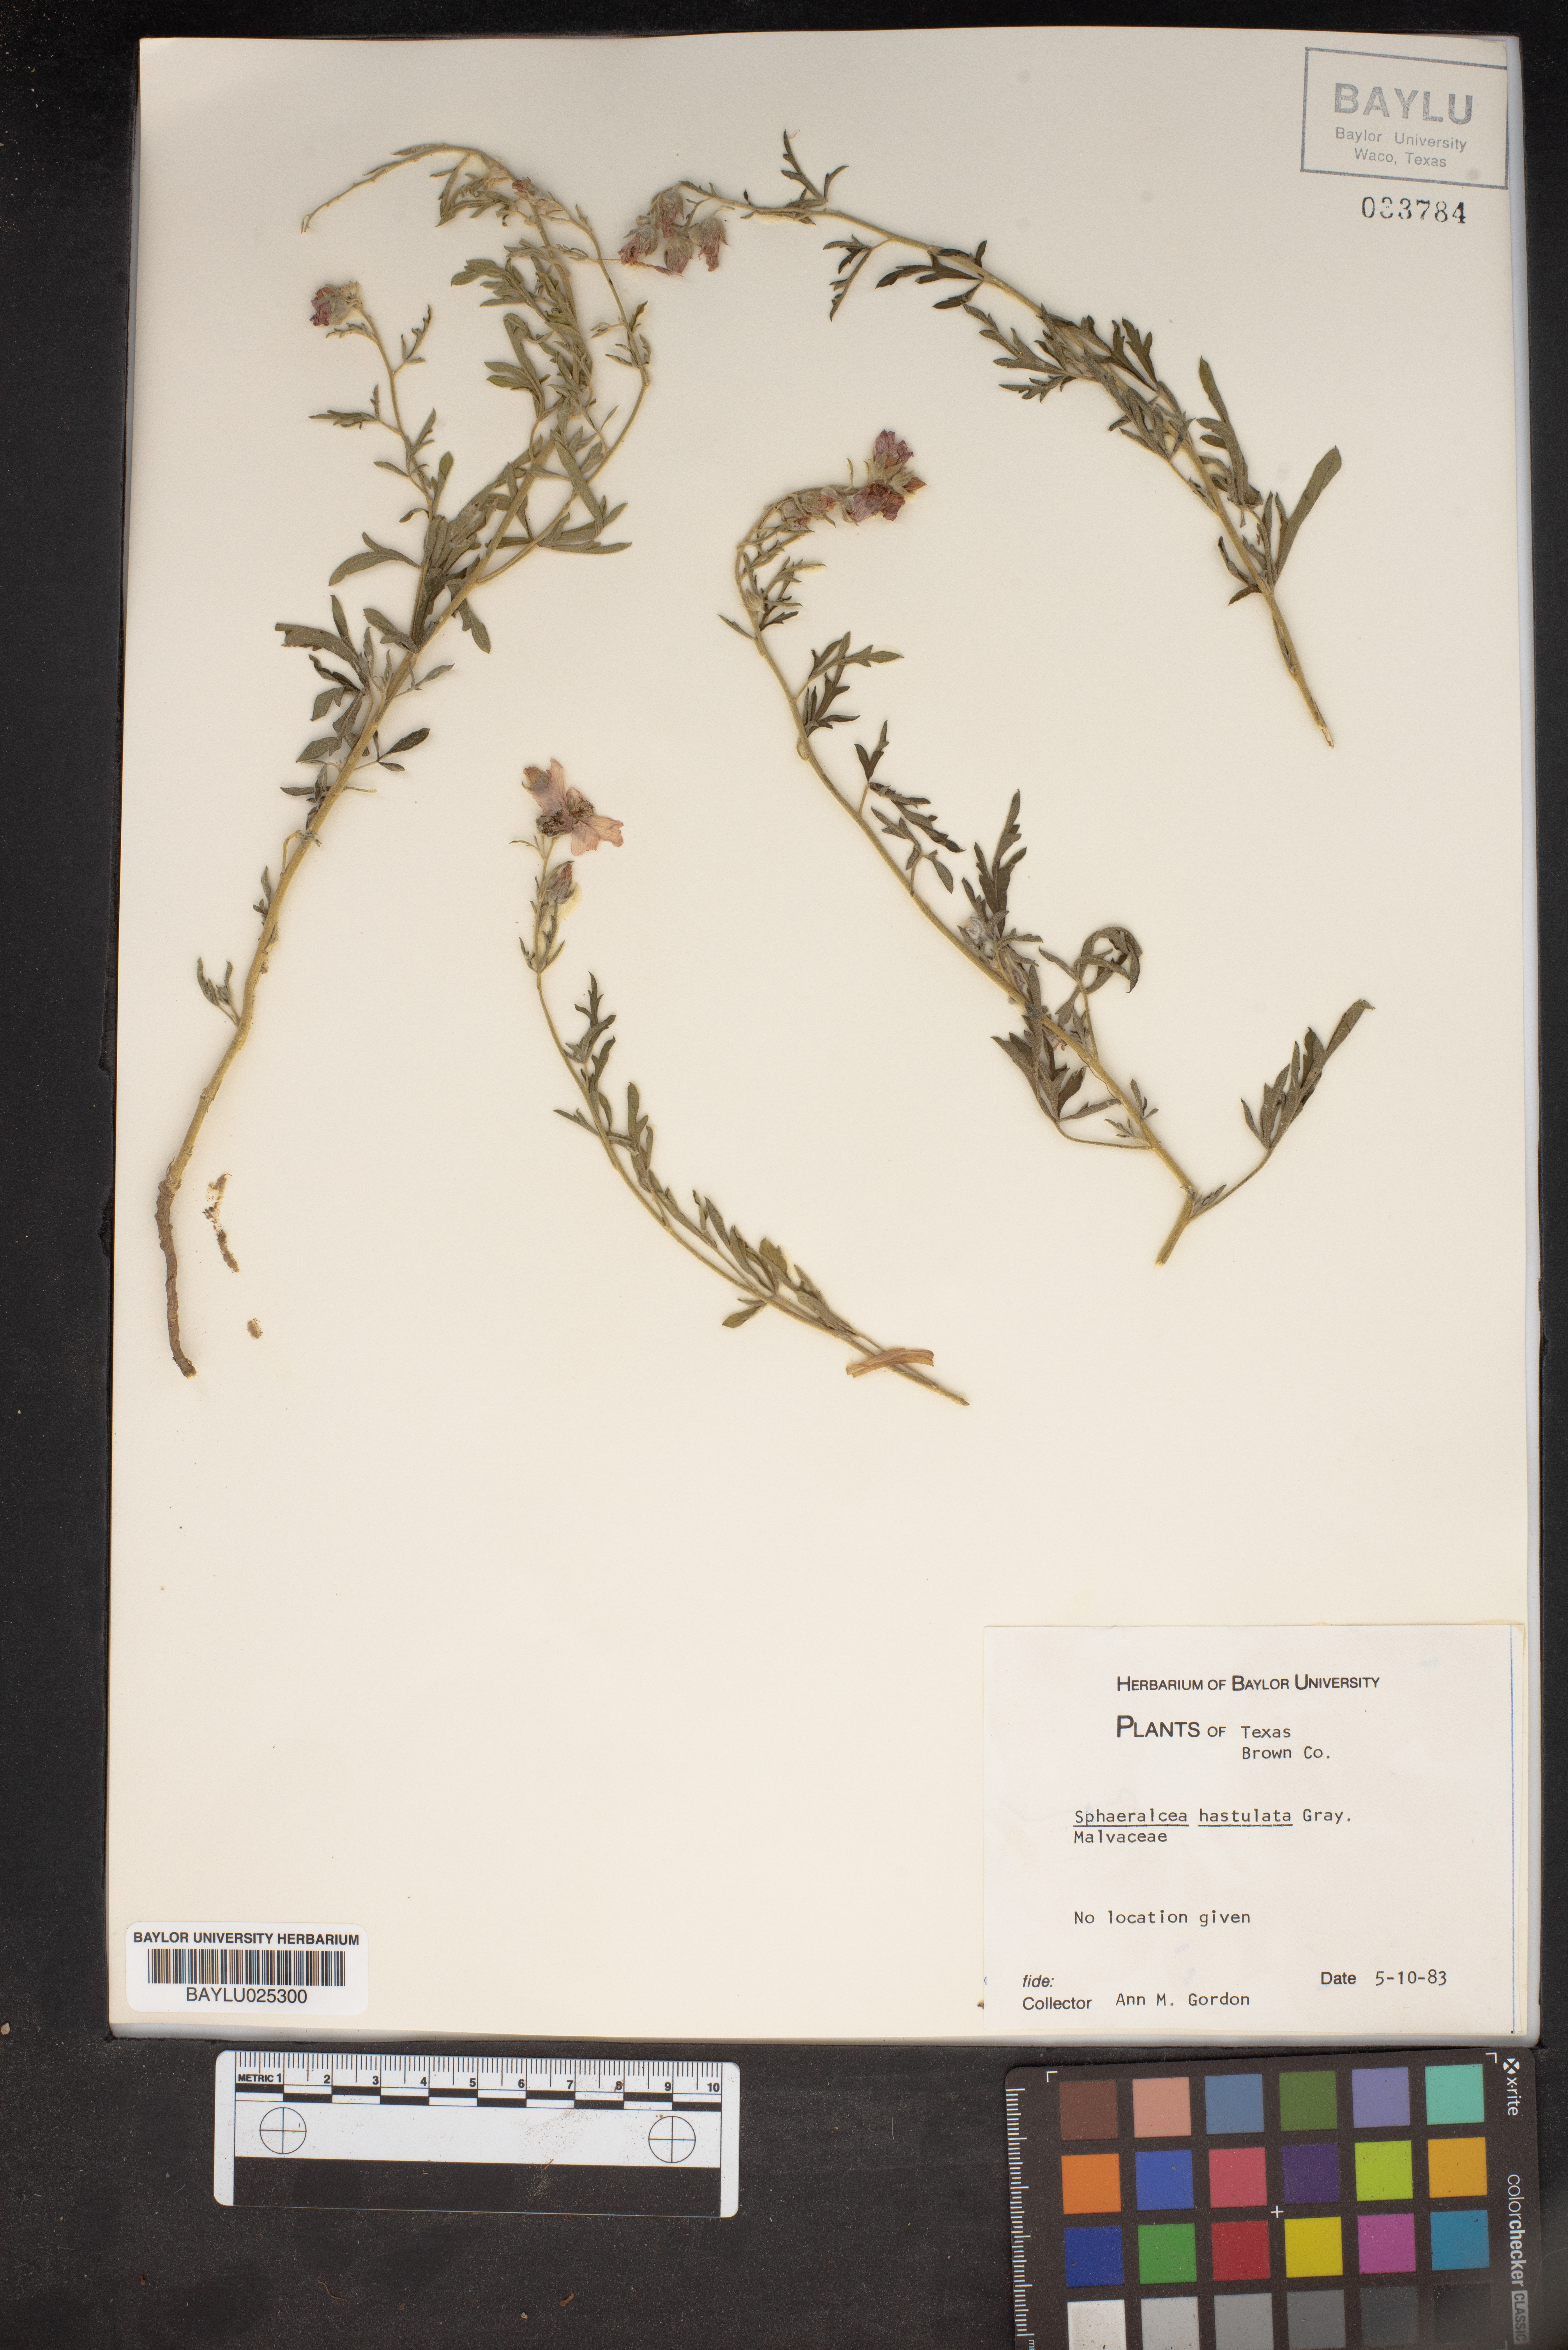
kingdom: Plantae
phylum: Tracheophyta
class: Magnoliopsida
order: Malvales
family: Malvaceae
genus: Sphaeralcea
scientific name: Sphaeralcea hastulata
